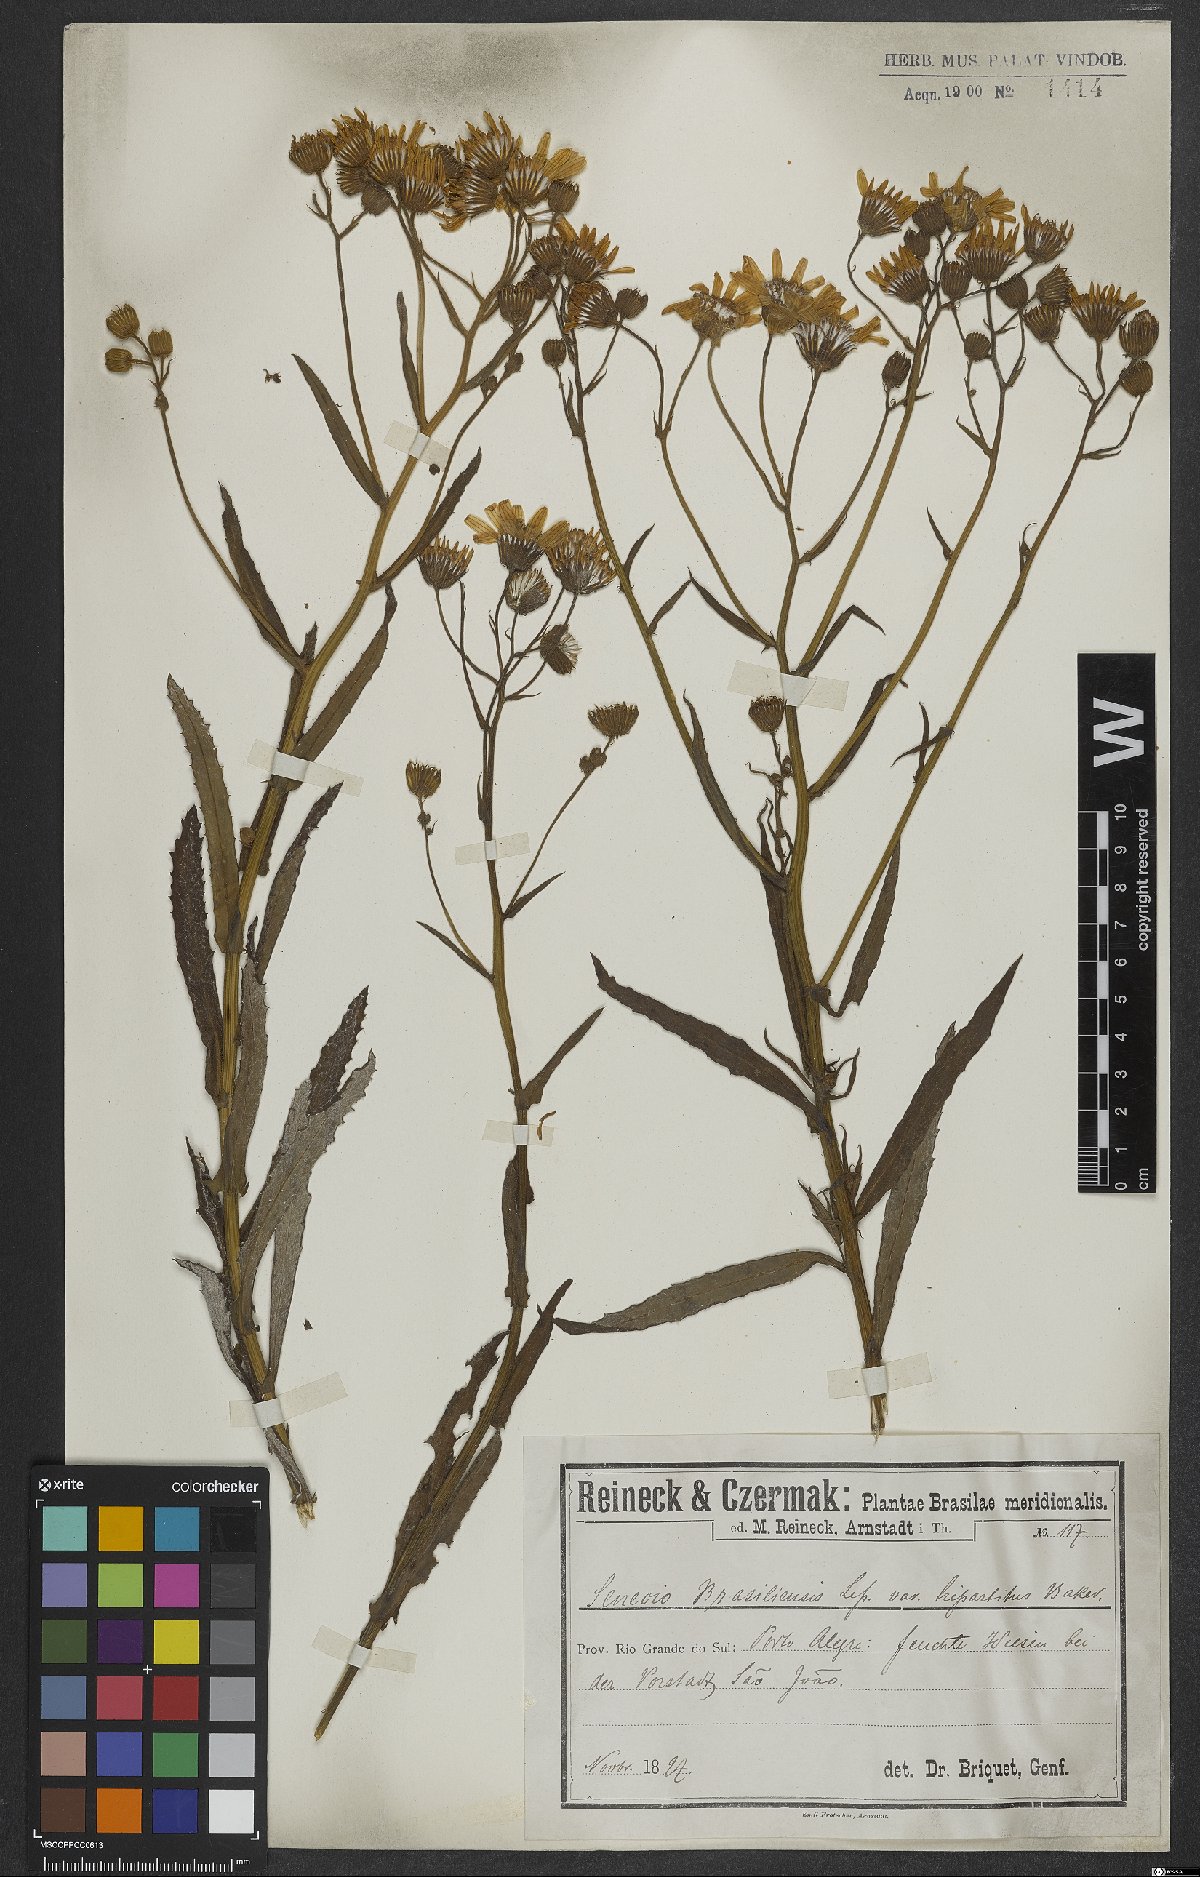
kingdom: Plantae
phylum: Tracheophyta
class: Magnoliopsida
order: Asterales
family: Asteraceae
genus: Senecio
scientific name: Senecio brasiliensis
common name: Hemp-leaf ragwort
